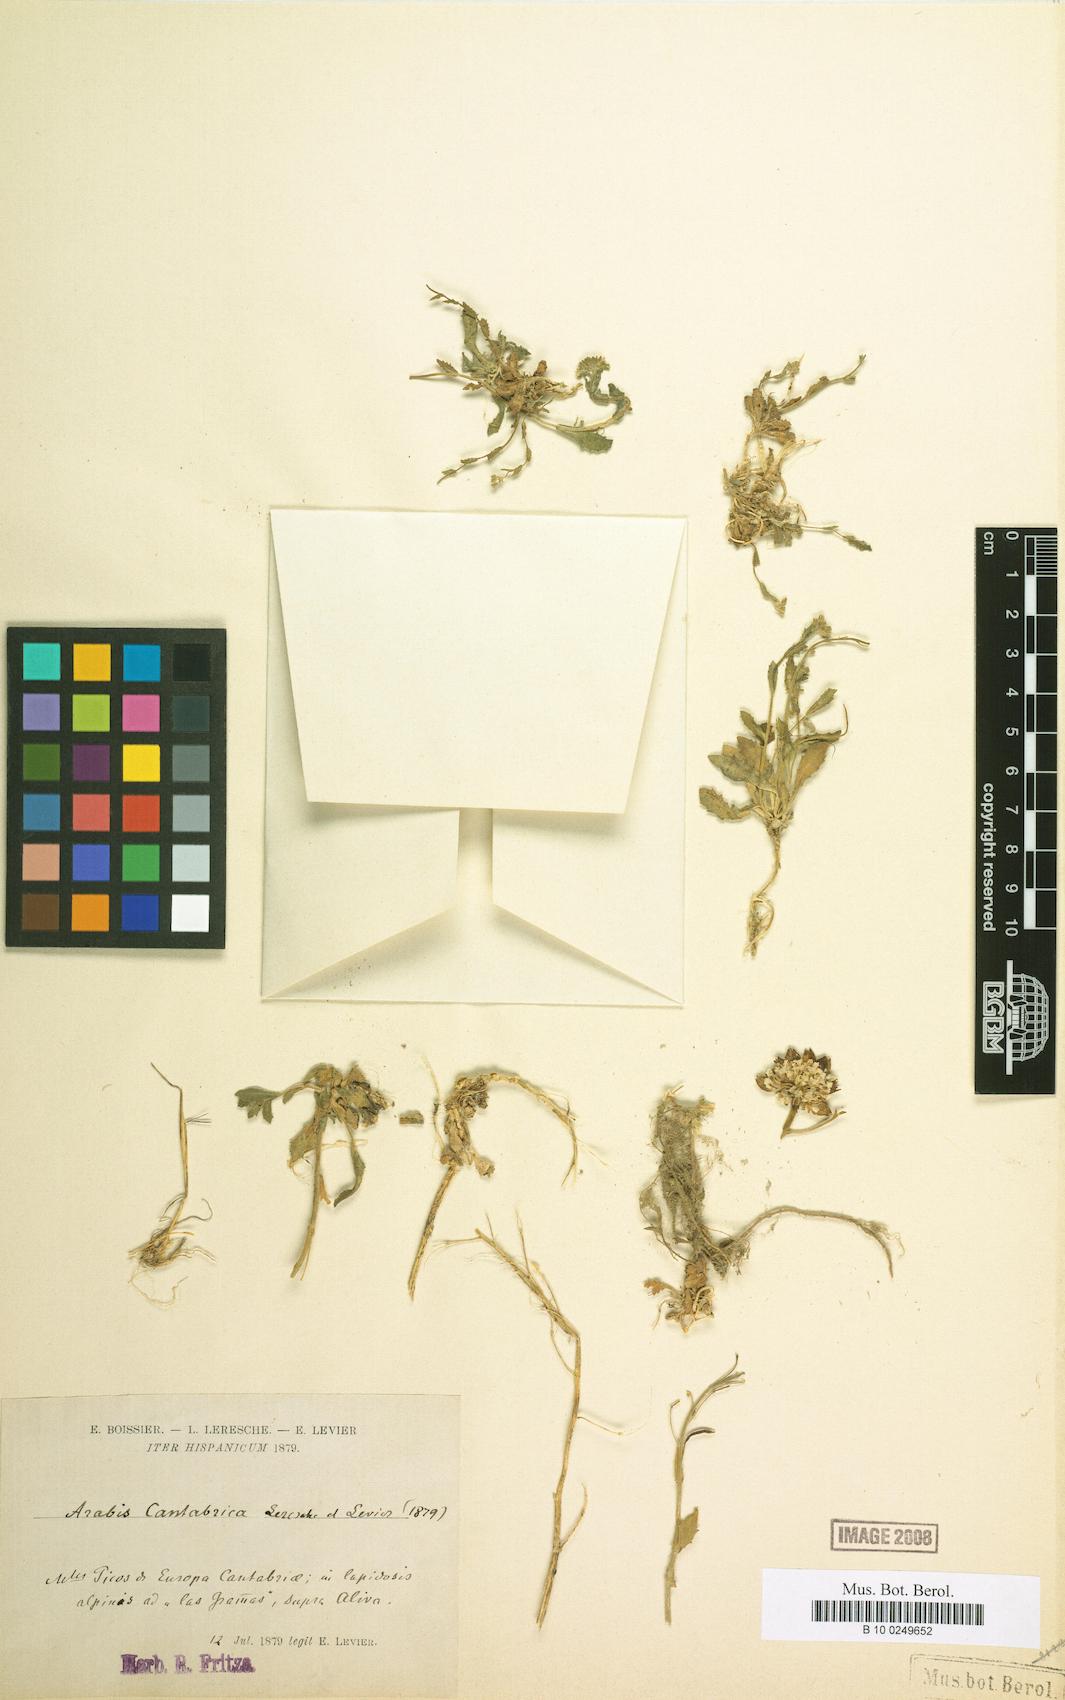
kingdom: Plantae
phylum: Tracheophyta
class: Magnoliopsida
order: Brassicales
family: Brassicaceae
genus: Arabis
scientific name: Arabis alpina
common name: Alpine rock-cress
